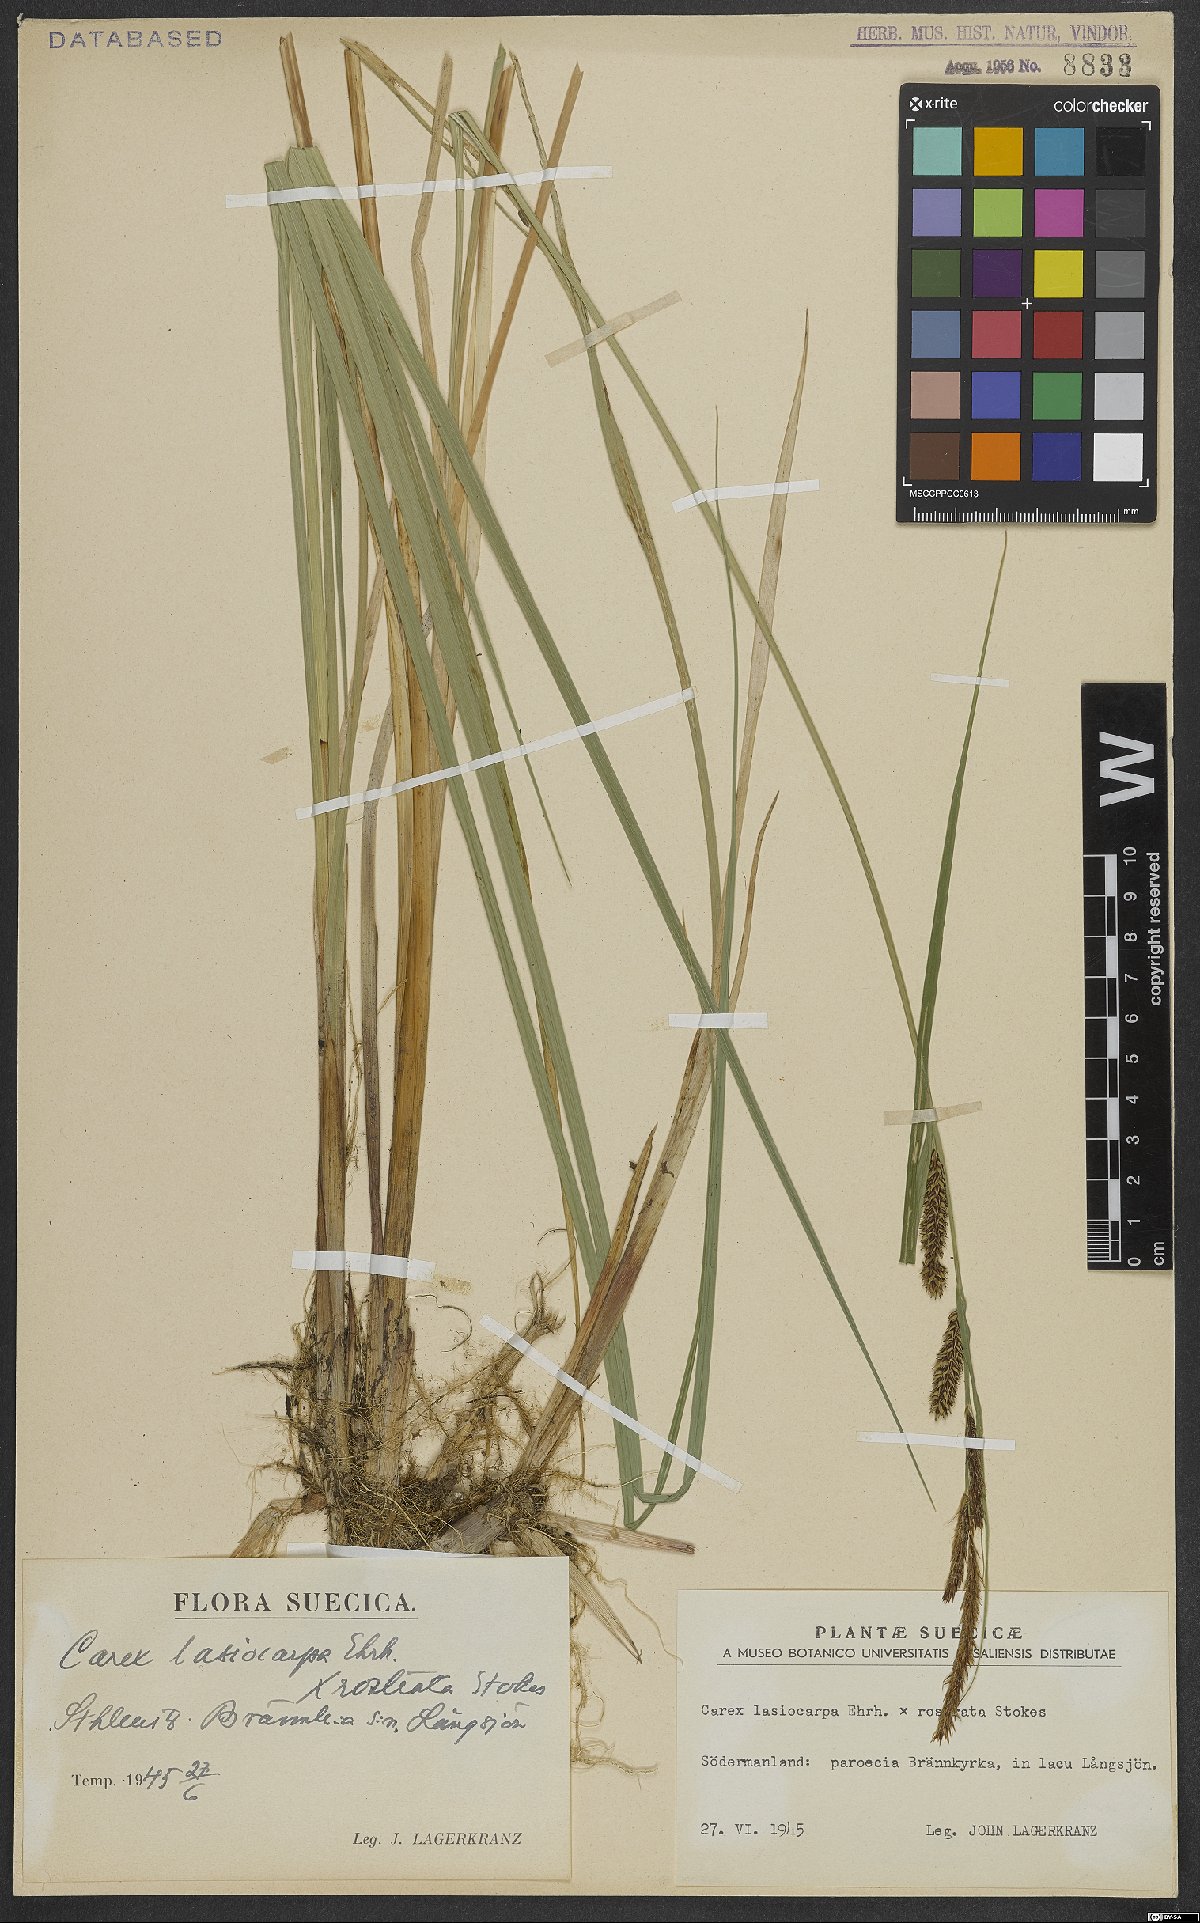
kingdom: Plantae
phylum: Tracheophyta
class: Liliopsida
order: Poales
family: Cyperaceae
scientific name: Cyperaceae
